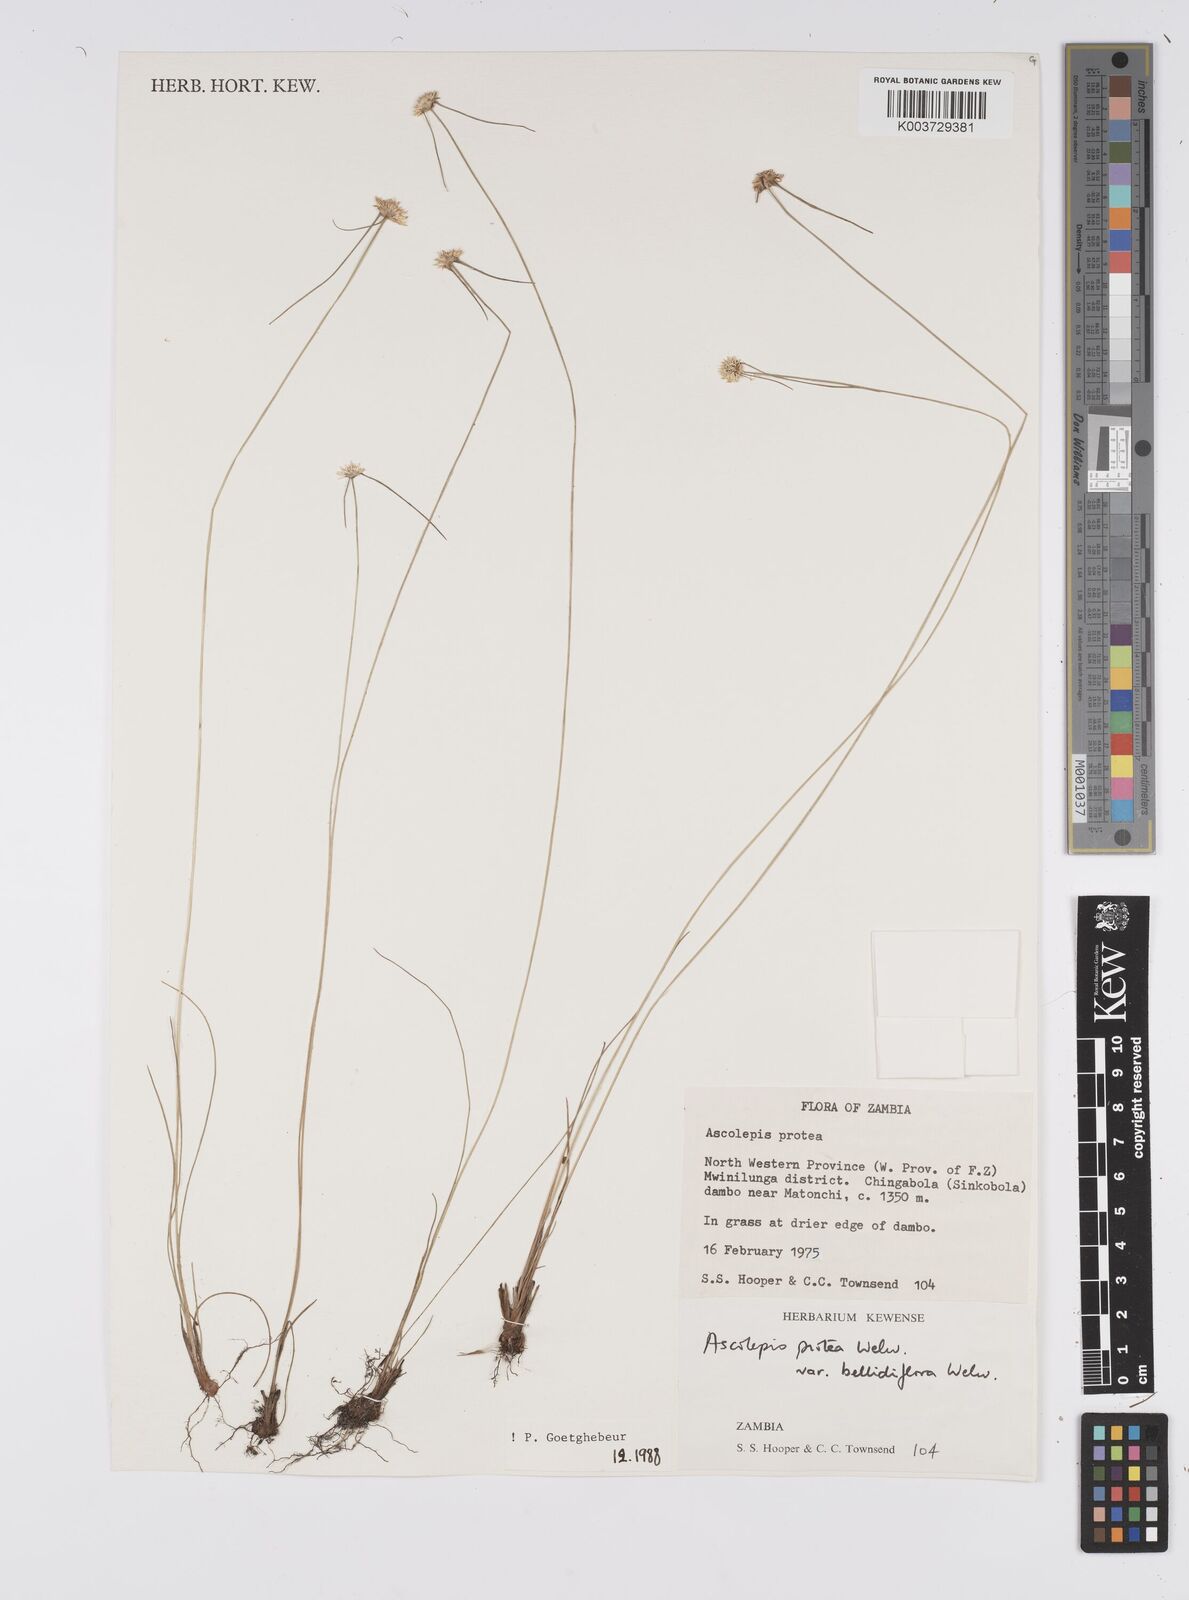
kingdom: Plantae
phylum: Tracheophyta
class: Liliopsida
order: Poales
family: Cyperaceae
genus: Cyperus
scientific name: Cyperus proteus
